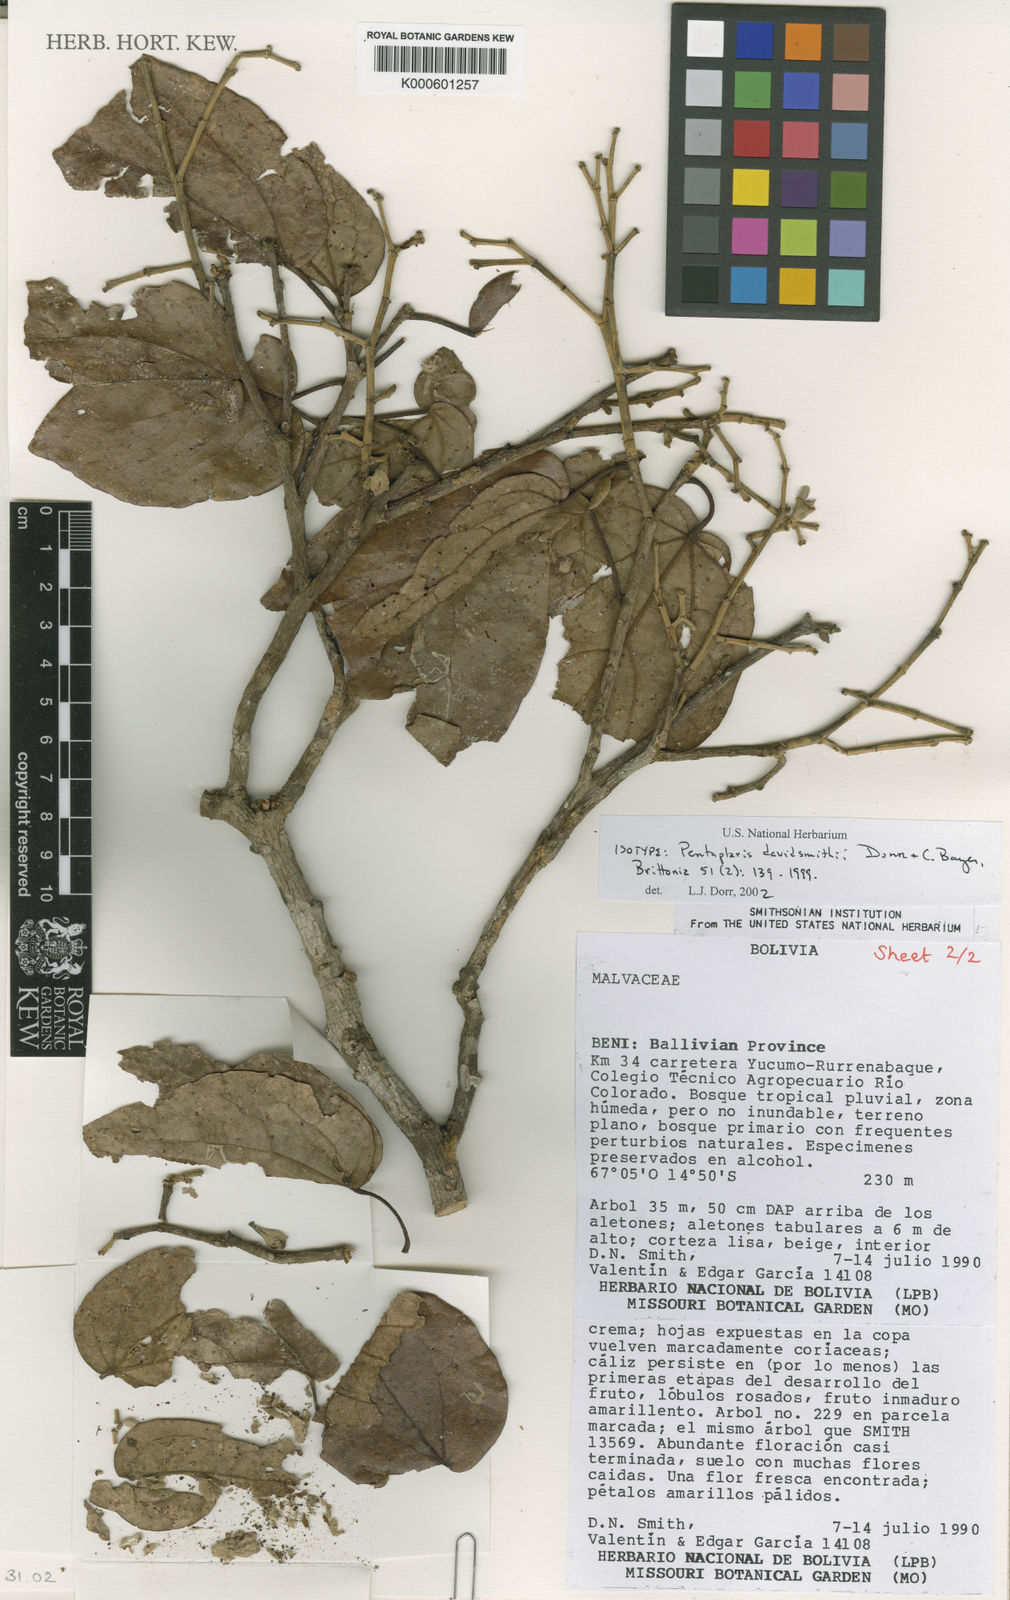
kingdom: Plantae
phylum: Tracheophyta
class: Magnoliopsida
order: Malvales
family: Malvaceae
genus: Pentaplaris
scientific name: Pentaplaris davidsmithii
